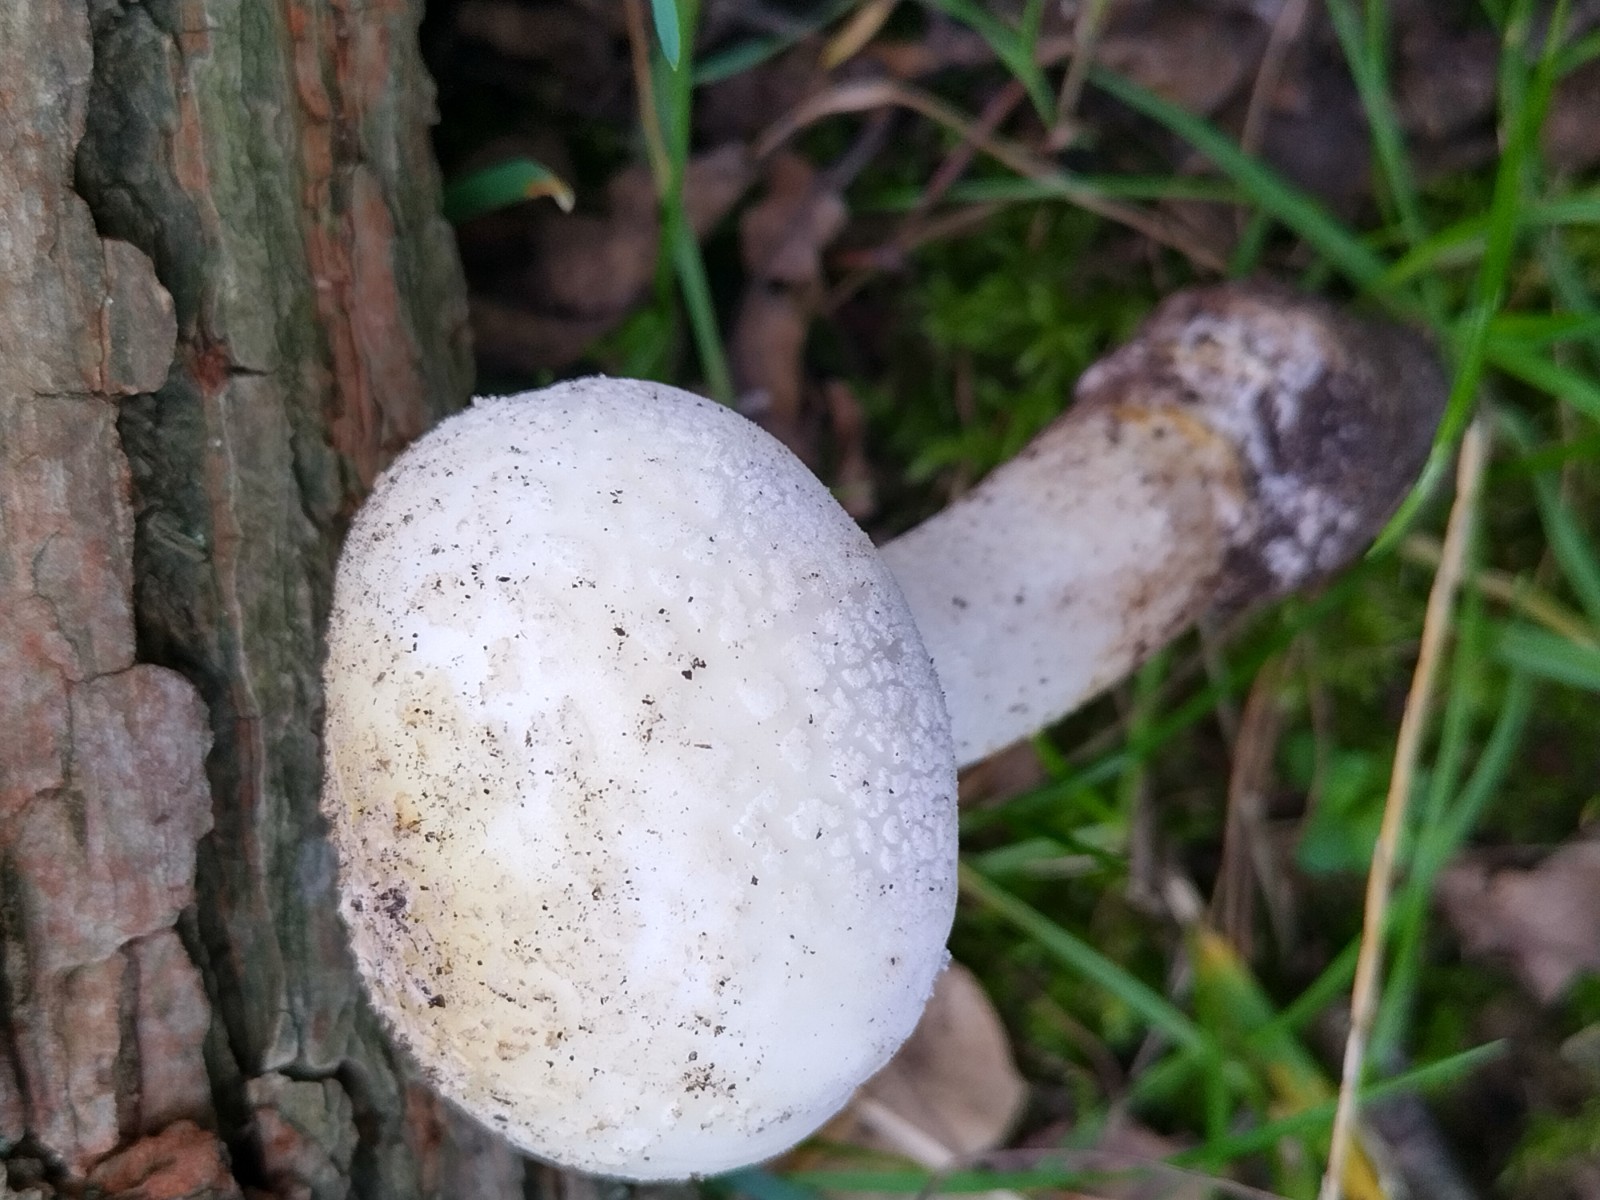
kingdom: Fungi
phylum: Basidiomycota
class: Agaricomycetes
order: Agaricales
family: Amanitaceae
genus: Amanita
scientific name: Amanita franchetii
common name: gulrandet fluesvamp
